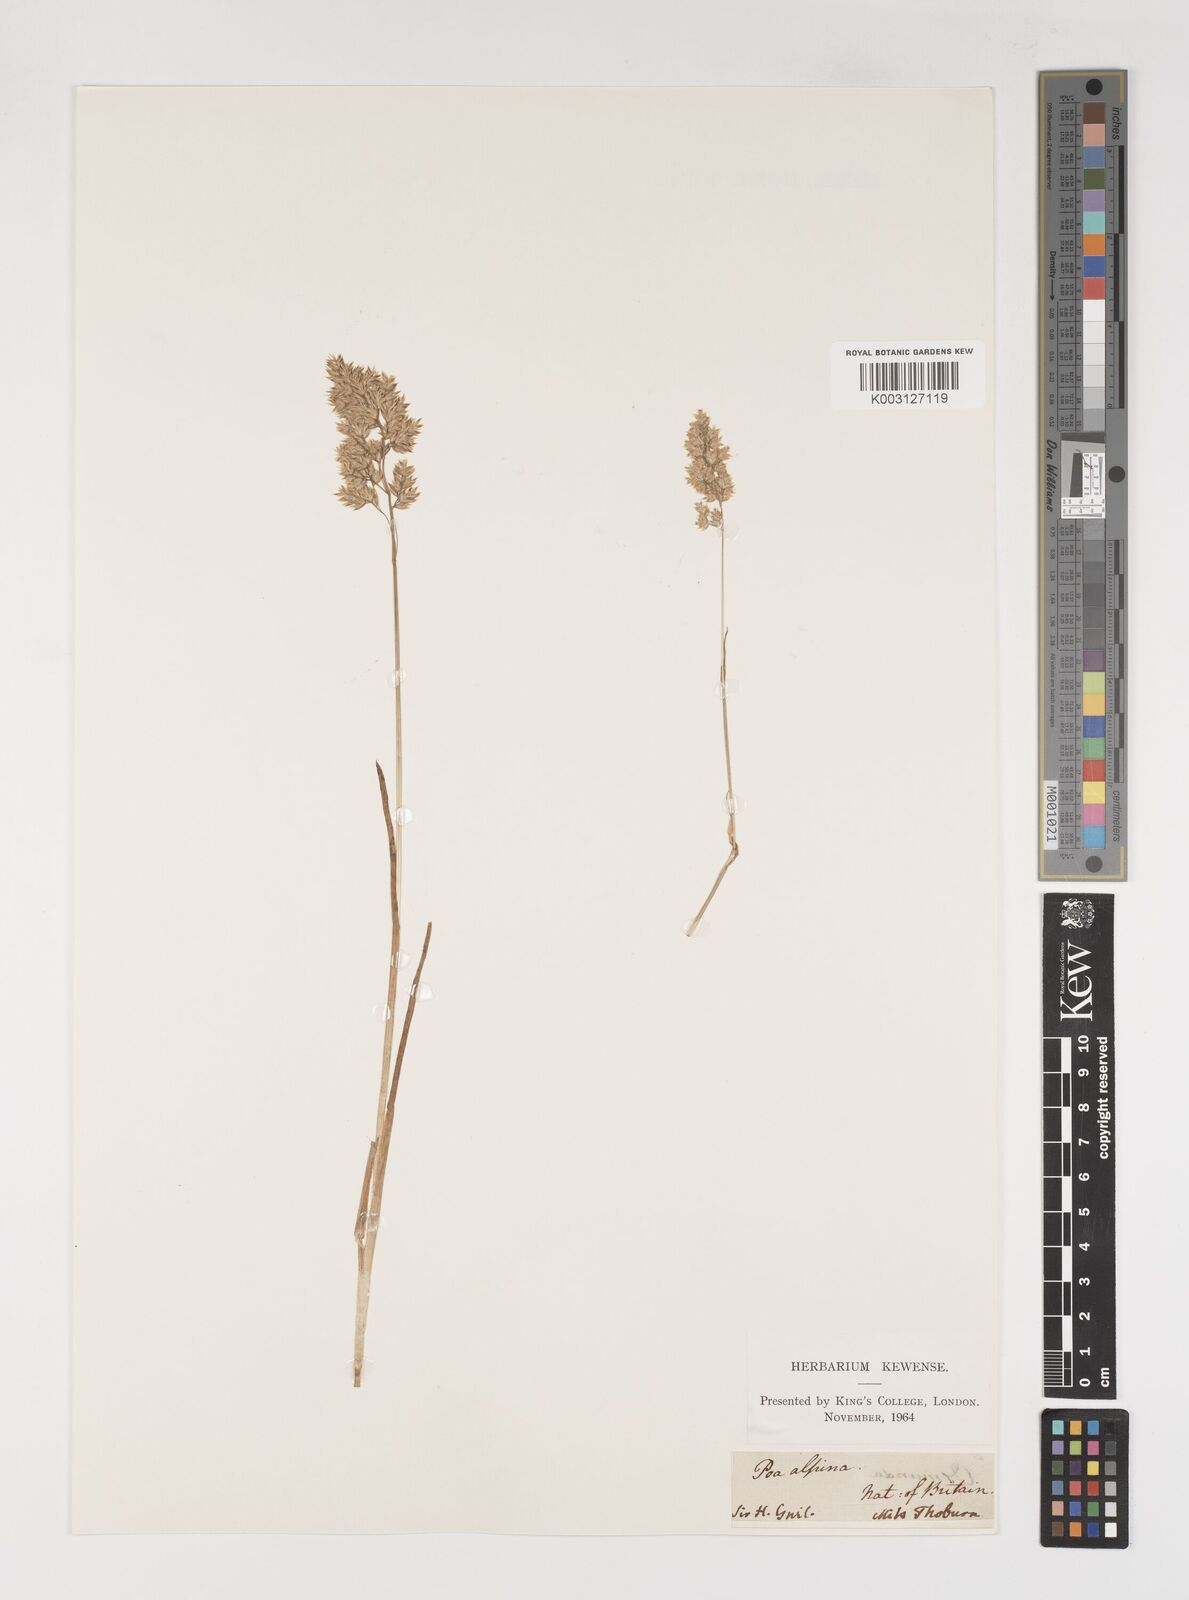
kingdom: Plantae
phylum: Tracheophyta
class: Liliopsida
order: Poales
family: Poaceae
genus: Poa
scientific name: Poa alpina
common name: Alpine bluegrass
